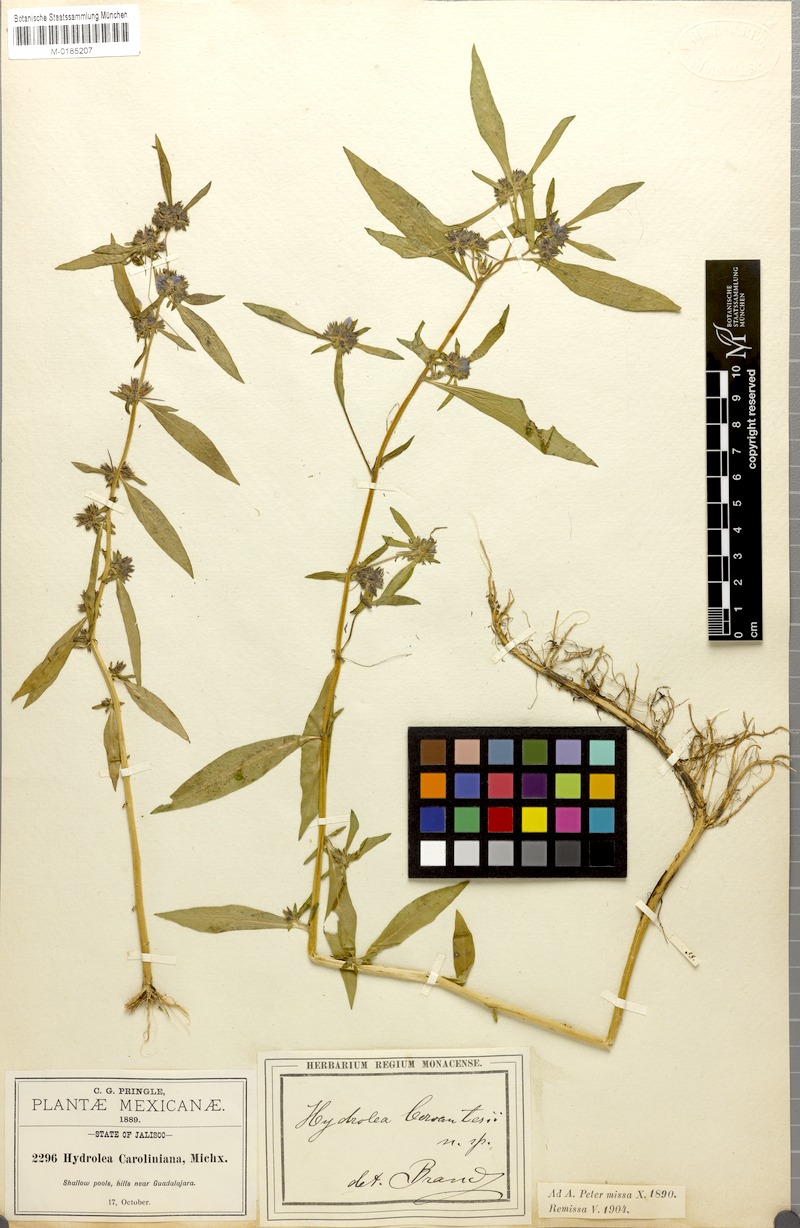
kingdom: Plantae
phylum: Tracheophyta
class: Magnoliopsida
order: Solanales
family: Hydroleaceae
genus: Hydrolea
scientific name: Hydrolea spinosa
